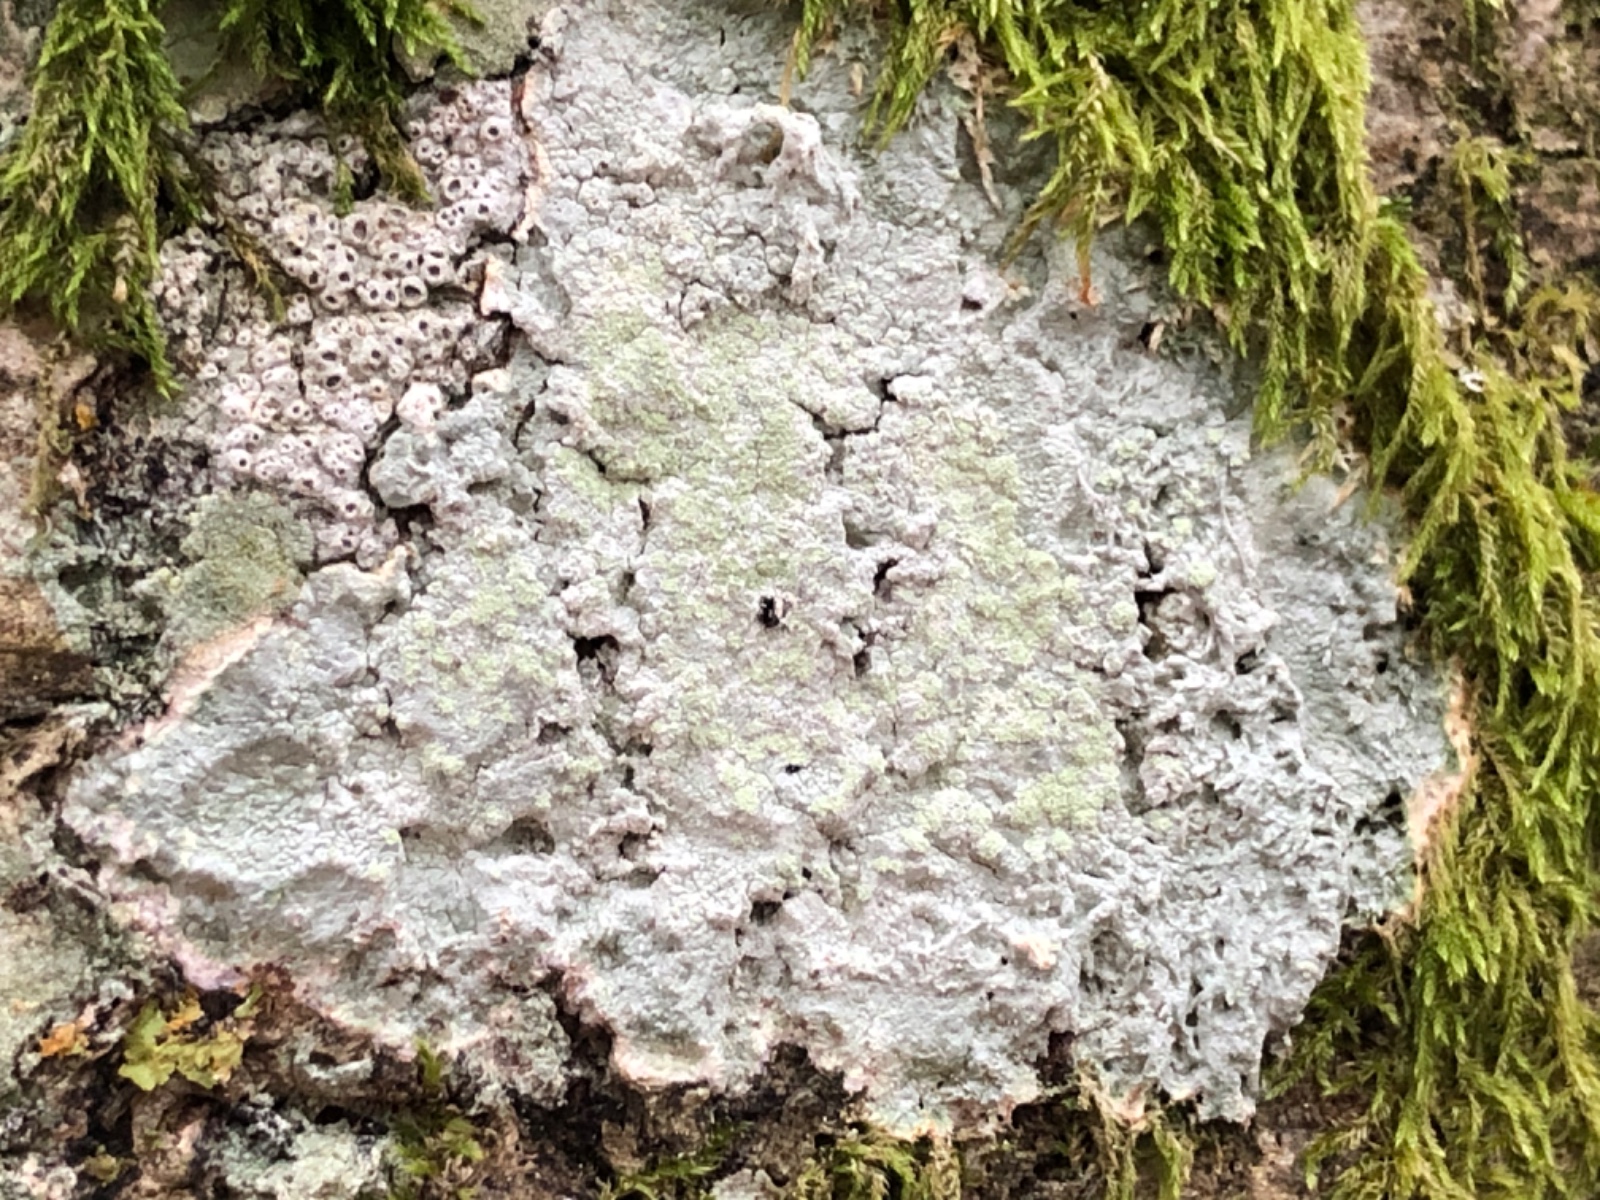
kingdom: Fungi
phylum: Ascomycota
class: Lecanoromycetes
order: Pertusariales
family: Varicellariaceae
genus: Varicellaria
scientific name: Varicellaria hemisphaerica
